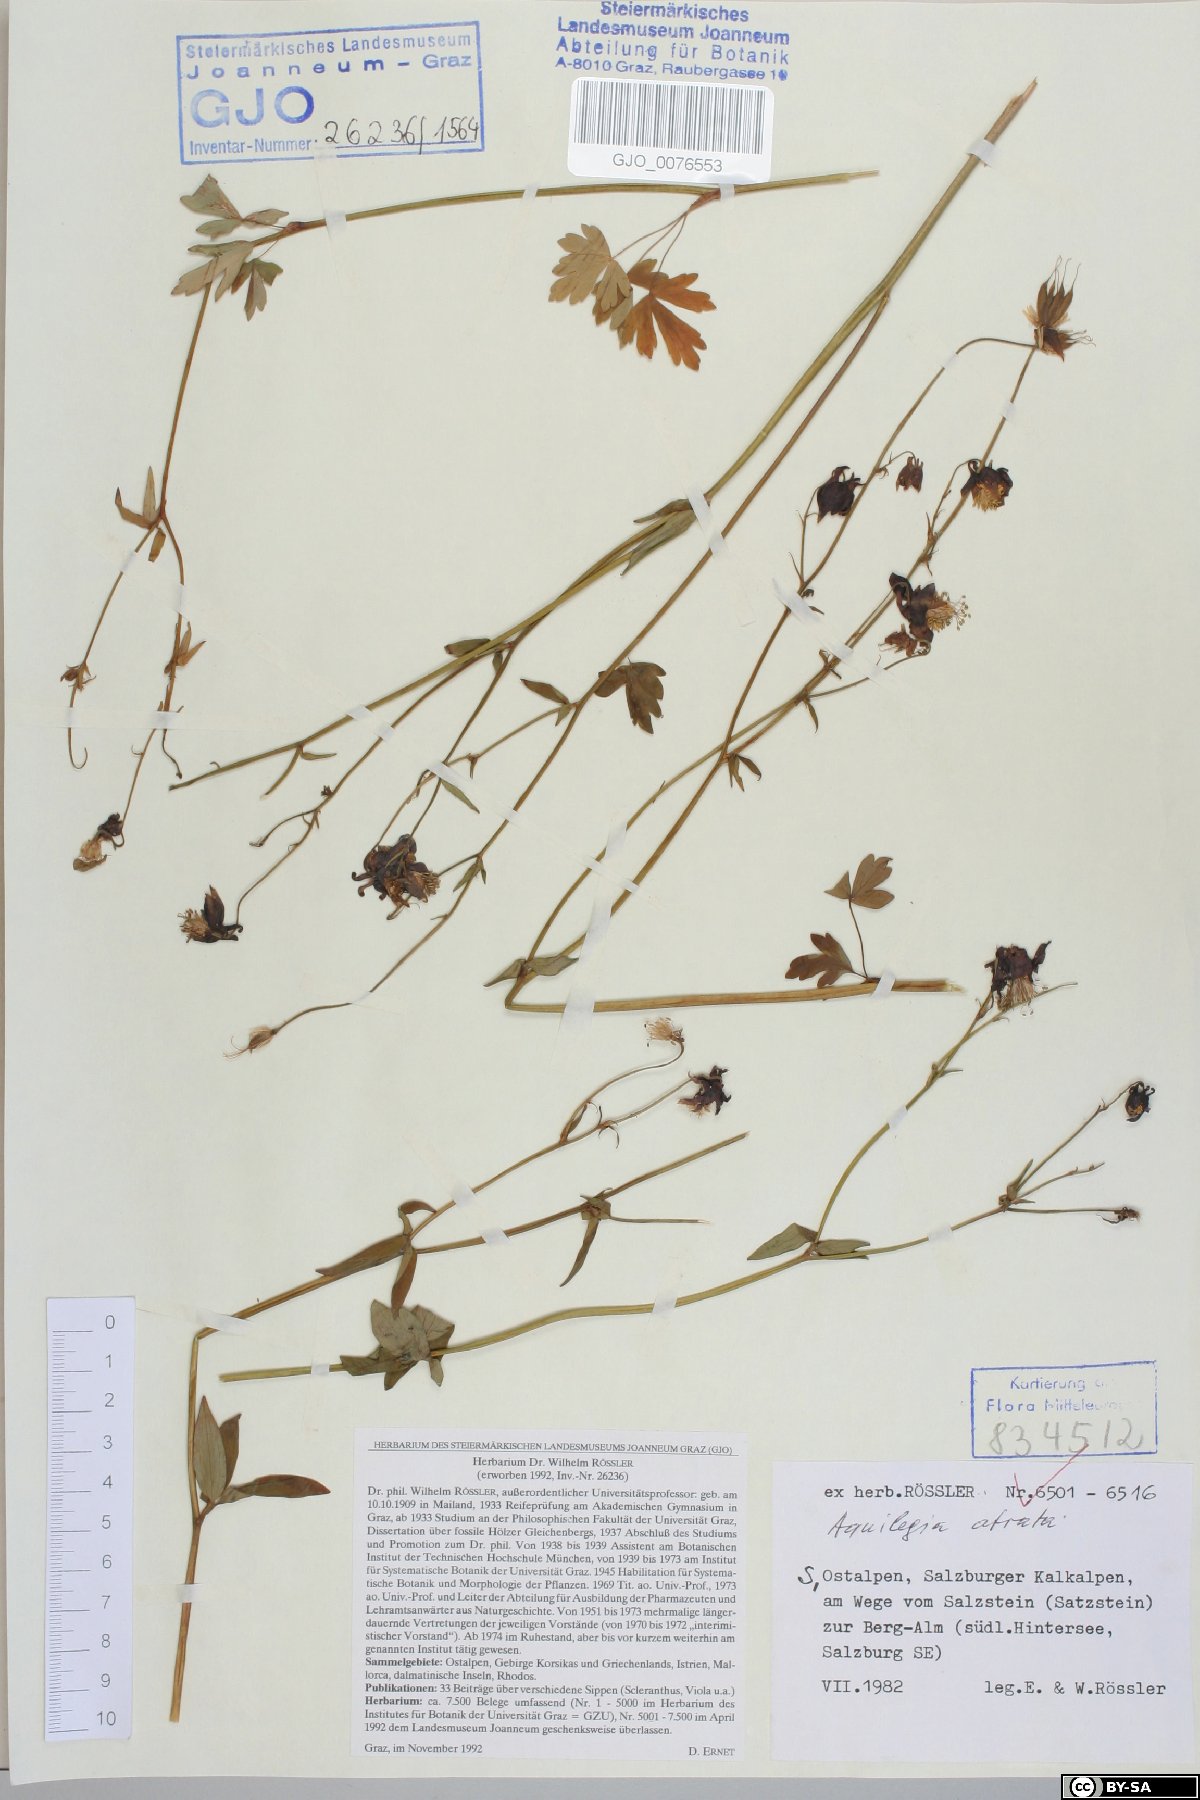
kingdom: Plantae
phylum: Tracheophyta
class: Magnoliopsida
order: Ranunculales
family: Ranunculaceae
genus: Aquilegia
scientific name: Aquilegia atrata
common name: Dark columbine
